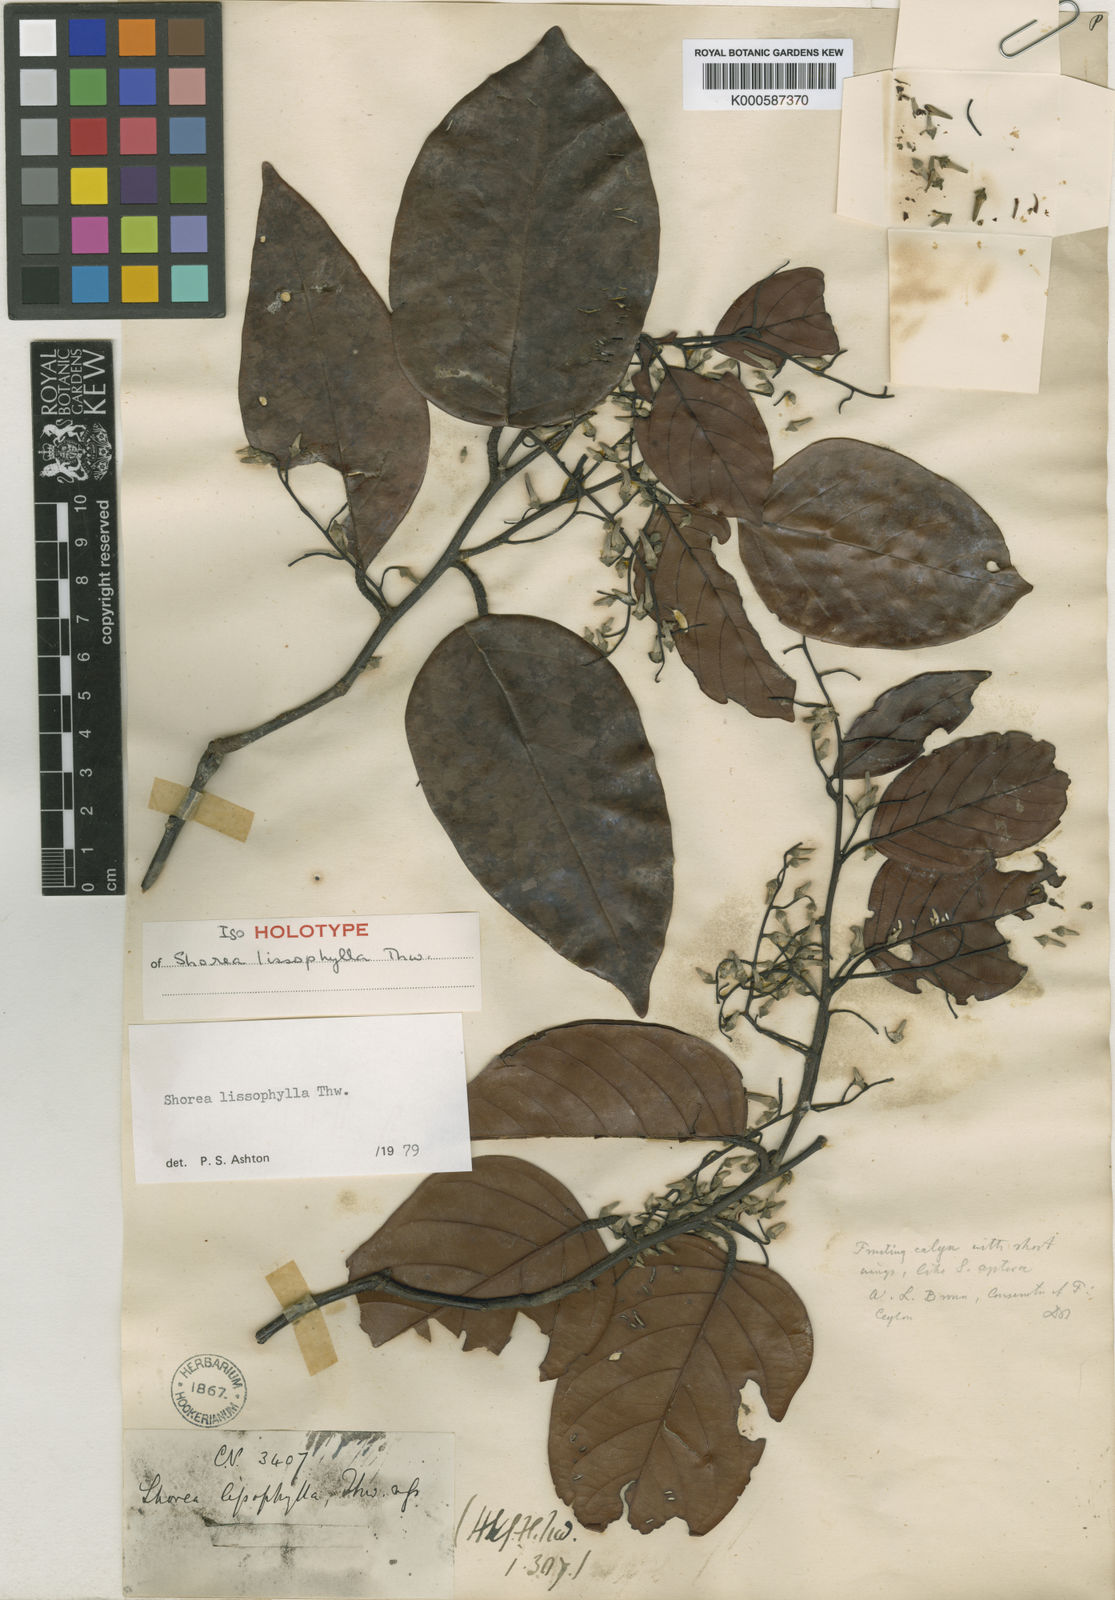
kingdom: Plantae
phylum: Tracheophyta
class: Magnoliopsida
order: Malvales
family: Dipterocarpaceae
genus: Shorea
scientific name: Shorea lissophylla
